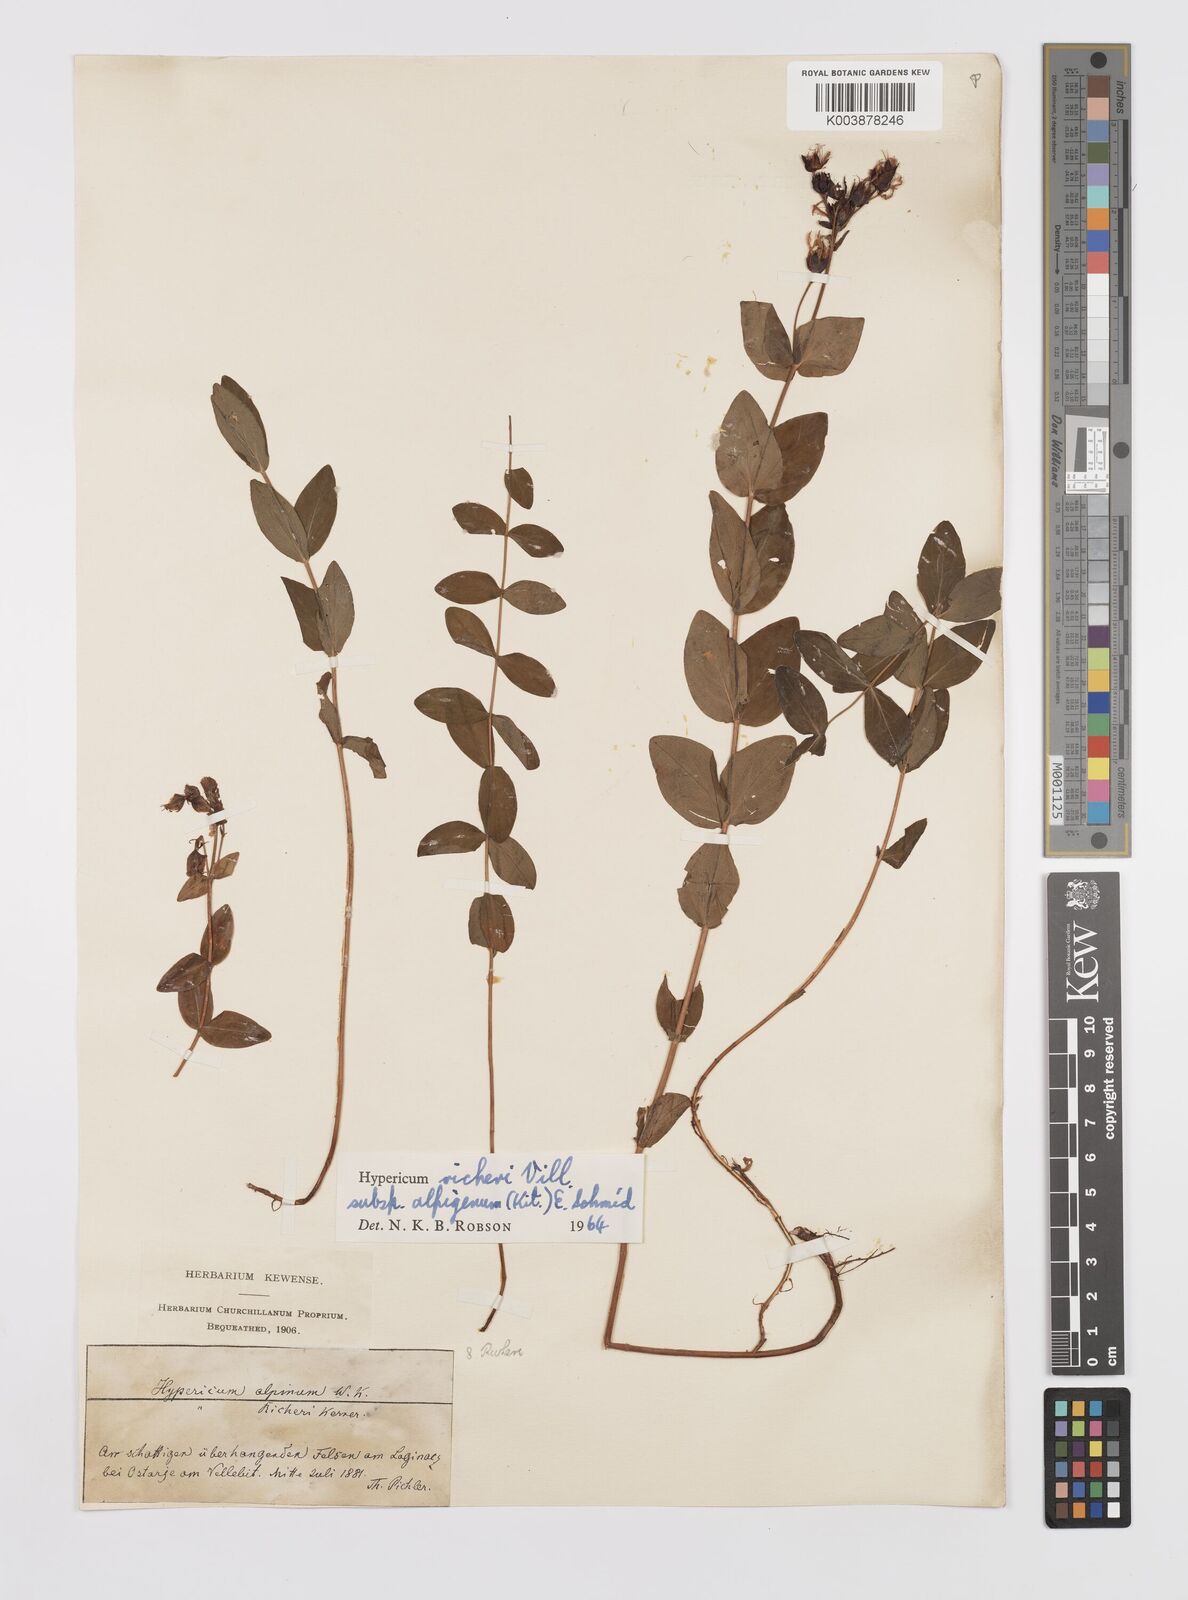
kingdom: Plantae
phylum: Tracheophyta
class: Magnoliopsida
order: Malpighiales
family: Hypericaceae
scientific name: Hypericaceae
